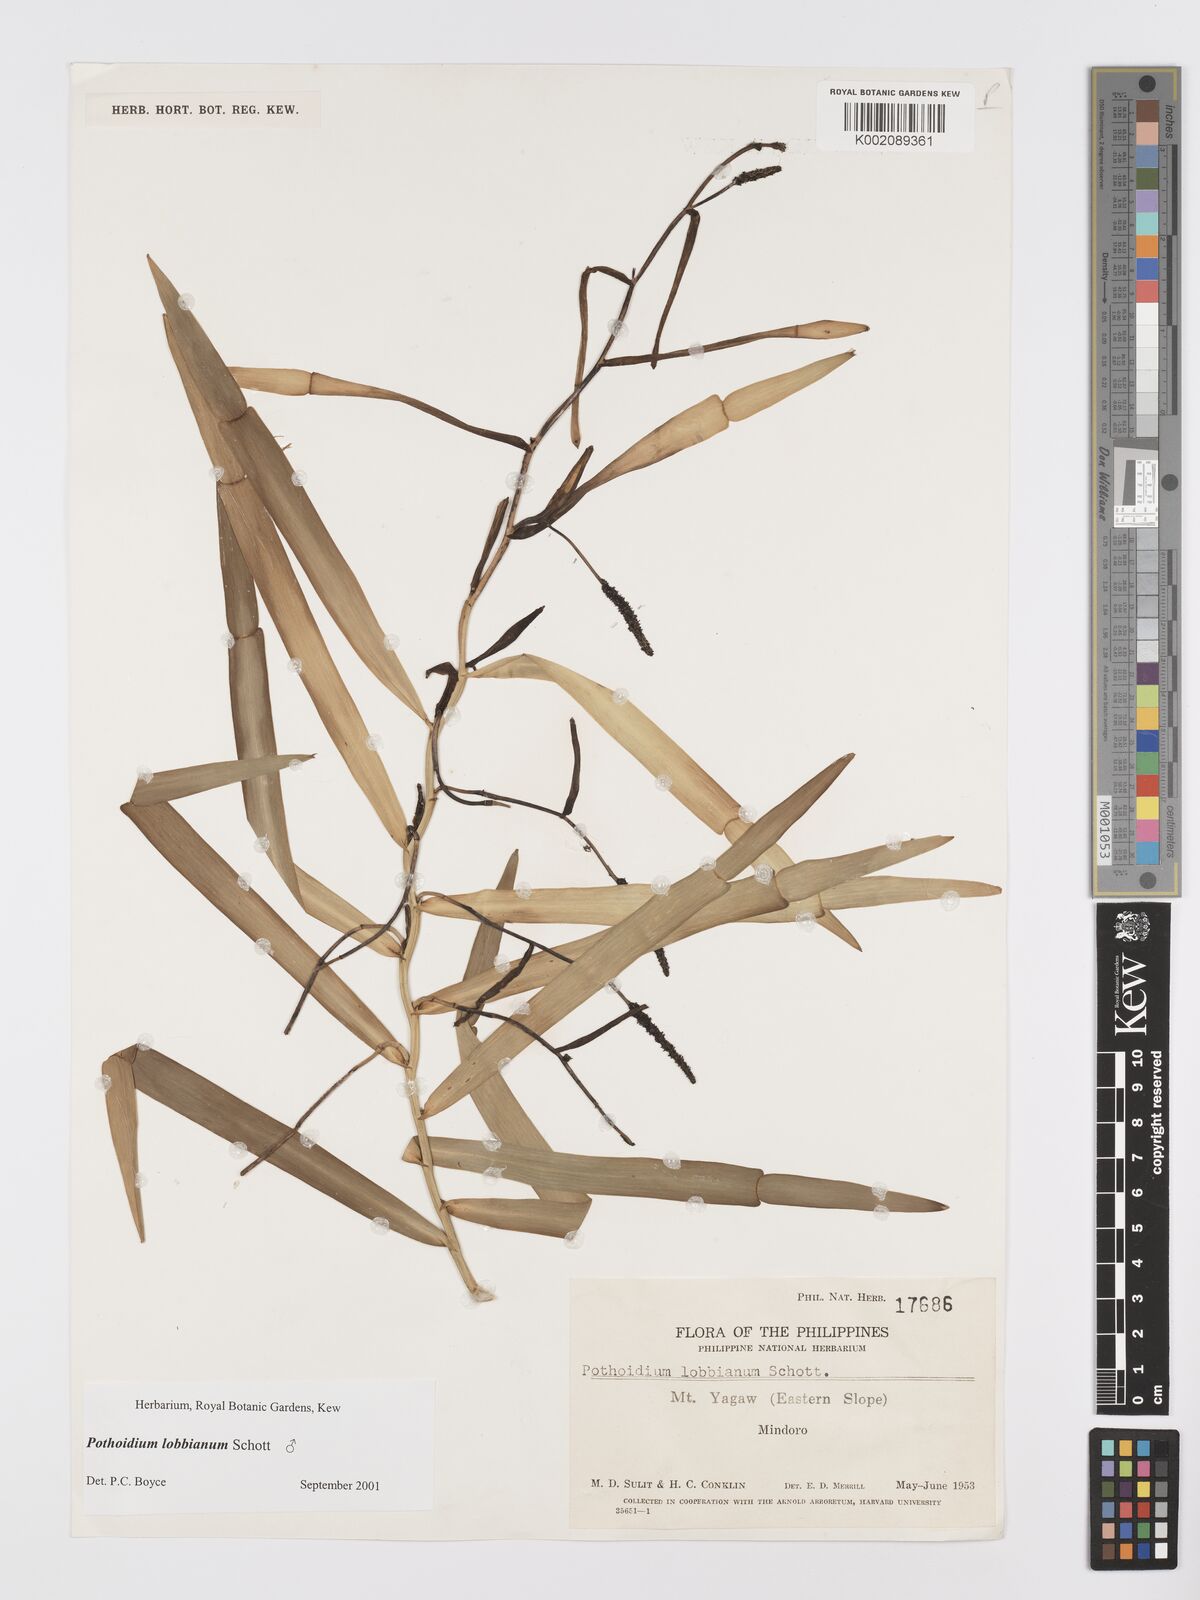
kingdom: Plantae
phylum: Tracheophyta
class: Liliopsida
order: Alismatales
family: Araceae
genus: Pothoidium
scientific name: Pothoidium lobbianum
